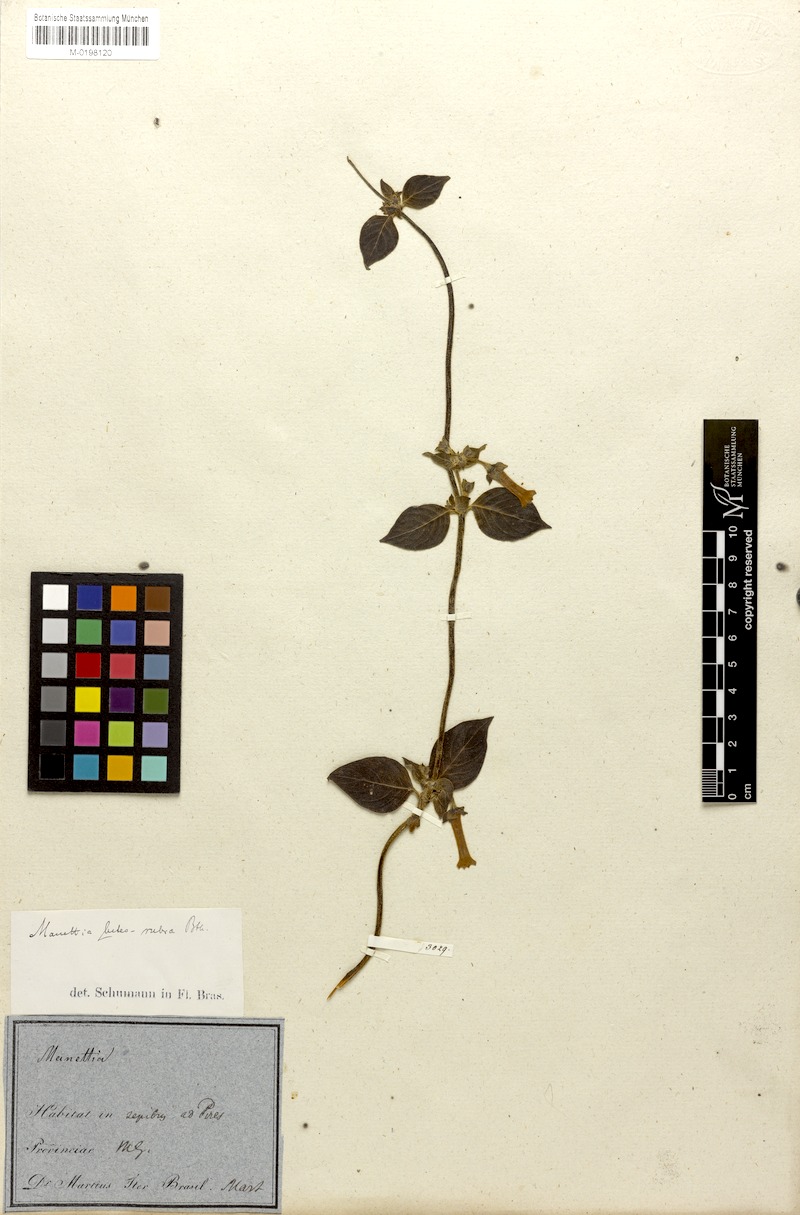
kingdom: Plantae
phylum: Tracheophyta
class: Magnoliopsida
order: Gentianales
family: Rubiaceae
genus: Manettia
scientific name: Manettia luteorubra
